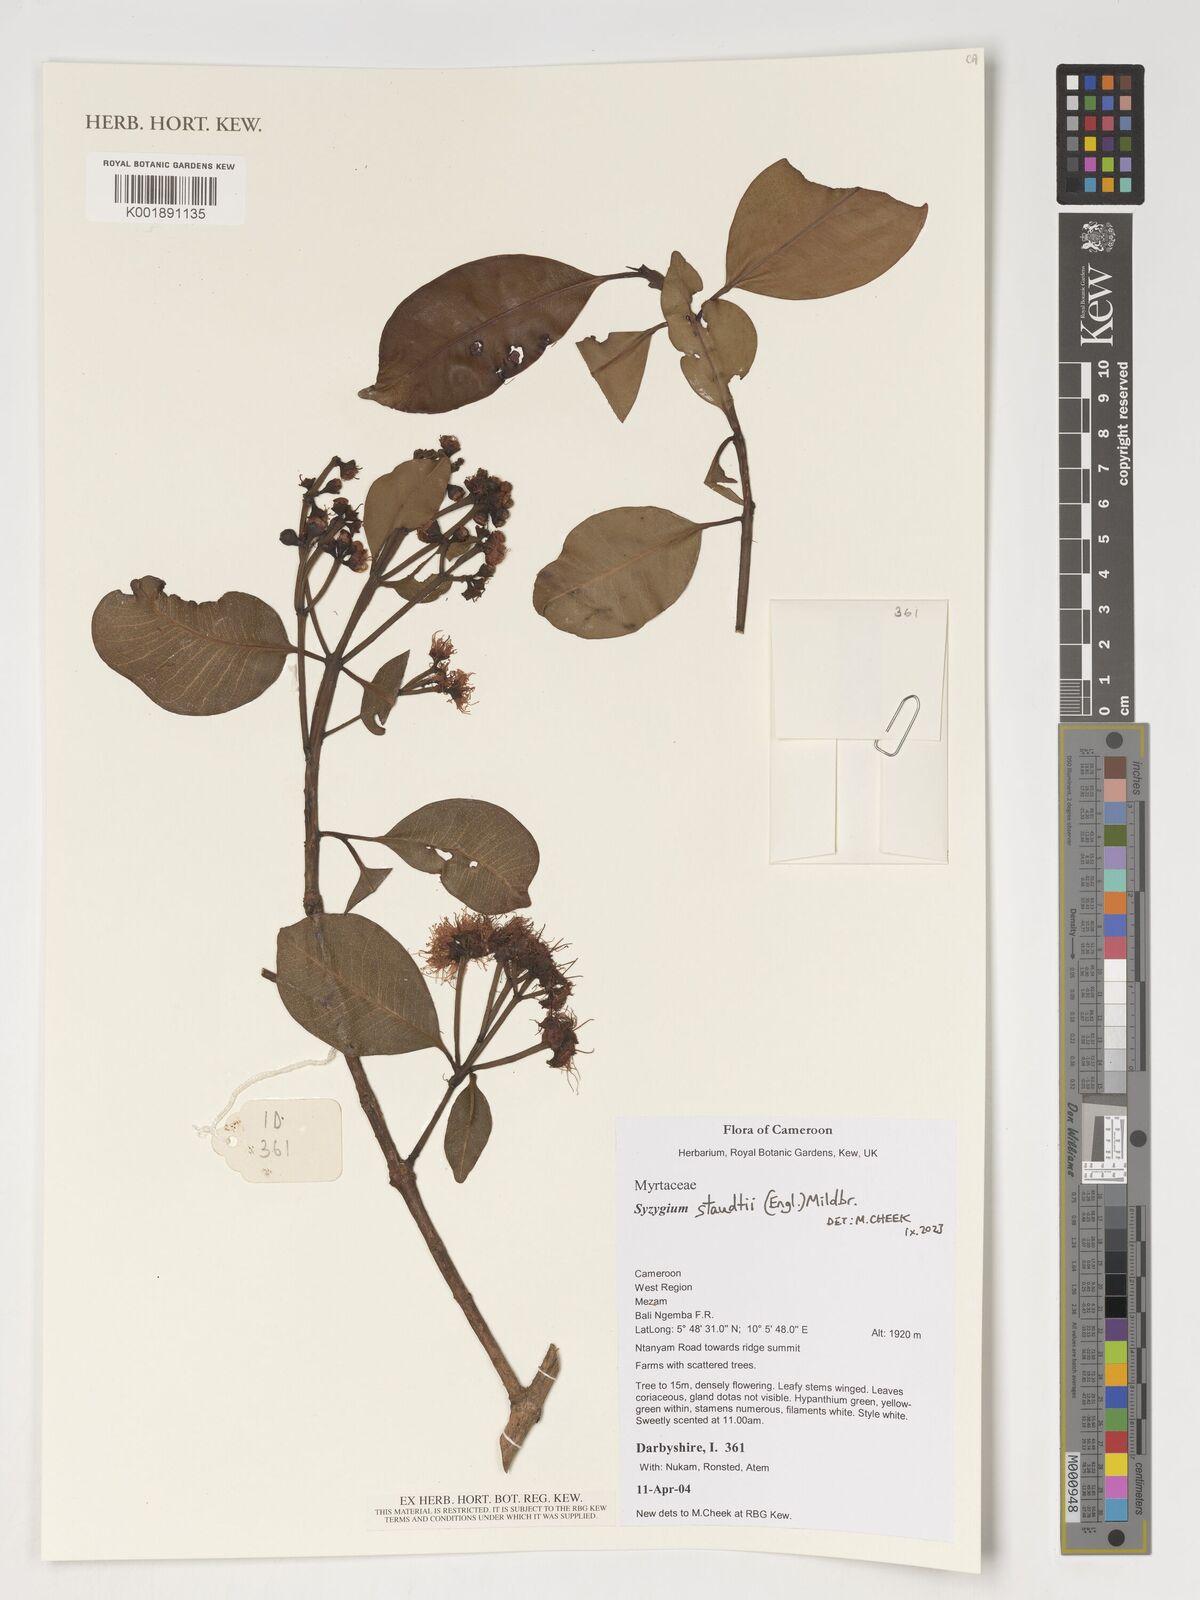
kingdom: Plantae
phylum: Tracheophyta
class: Magnoliopsida
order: Myrtales
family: Myrtaceae
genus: Syzygium
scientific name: Syzygium staudtii
